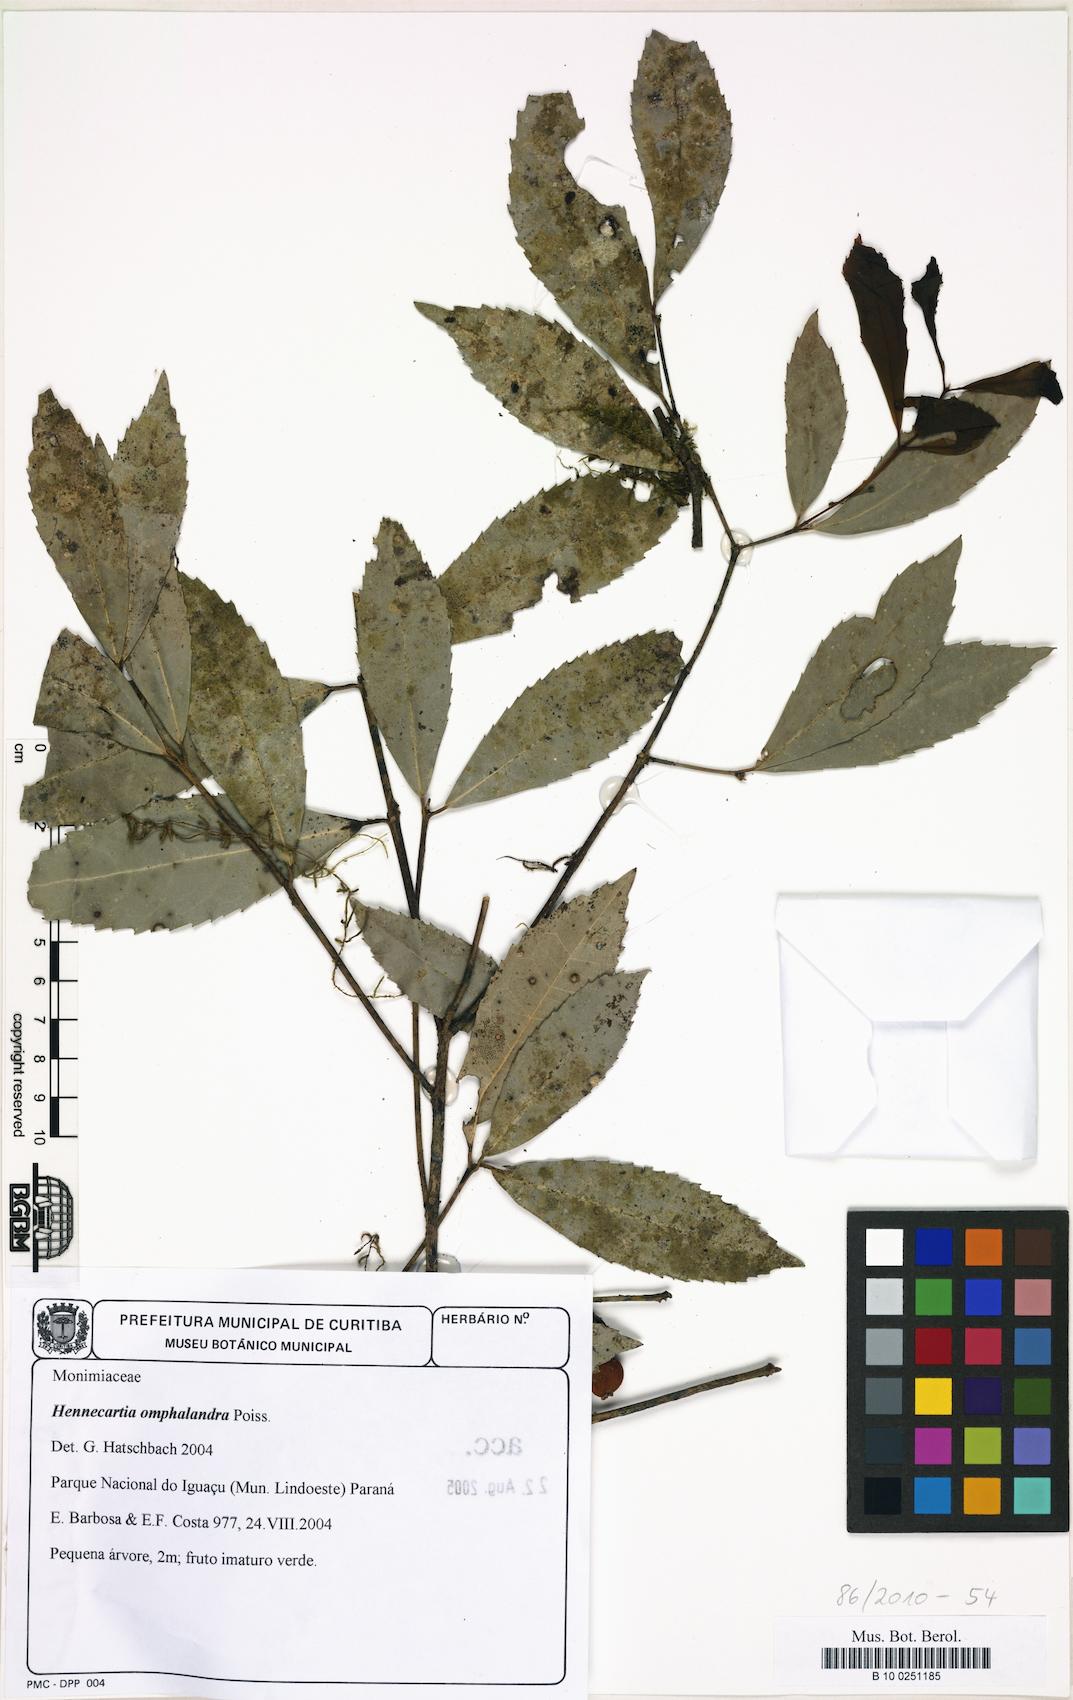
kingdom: Plantae
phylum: Tracheophyta
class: Magnoliopsida
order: Laurales
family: Monimiaceae
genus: Hennecartia
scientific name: Hennecartia omphalandra
